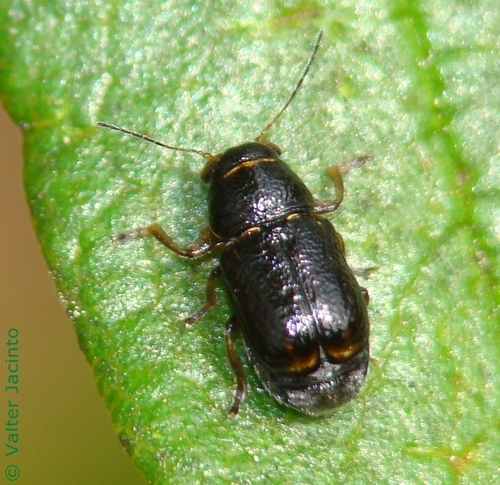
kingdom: Animalia
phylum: Arthropoda
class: Insecta
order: Coleoptera
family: Chrysomelidae
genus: Pachybrachis
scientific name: Pachybrachis
